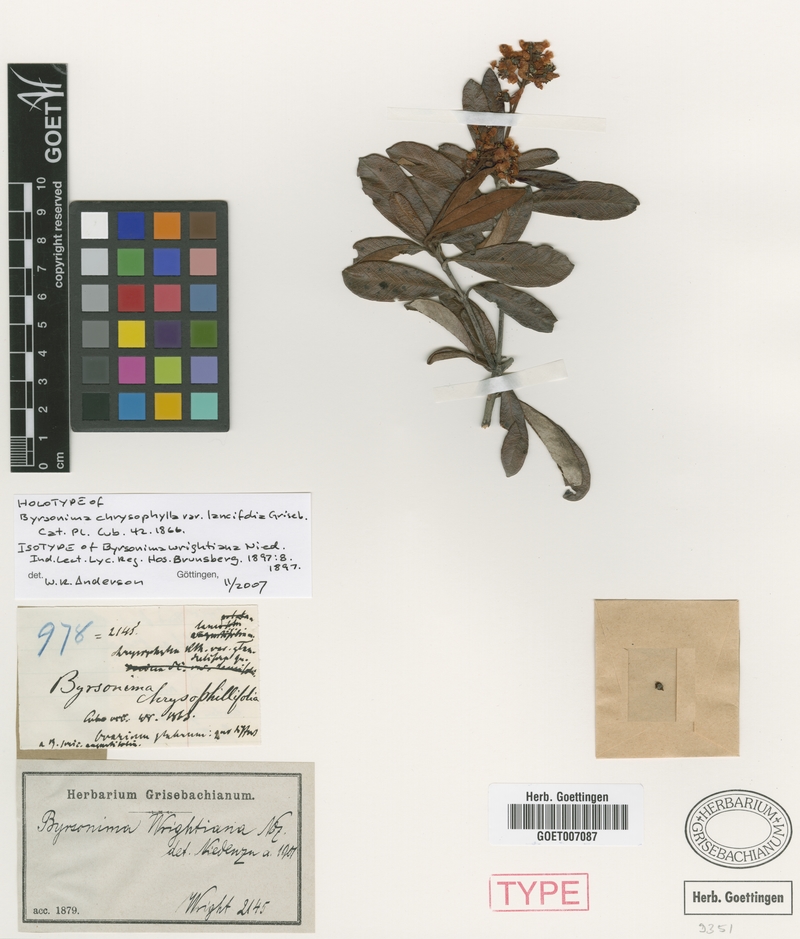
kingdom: Plantae
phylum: Tracheophyta
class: Magnoliopsida
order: Malpighiales
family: Malpighiaceae
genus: Byrsonima
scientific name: Byrsonima wrightiana
